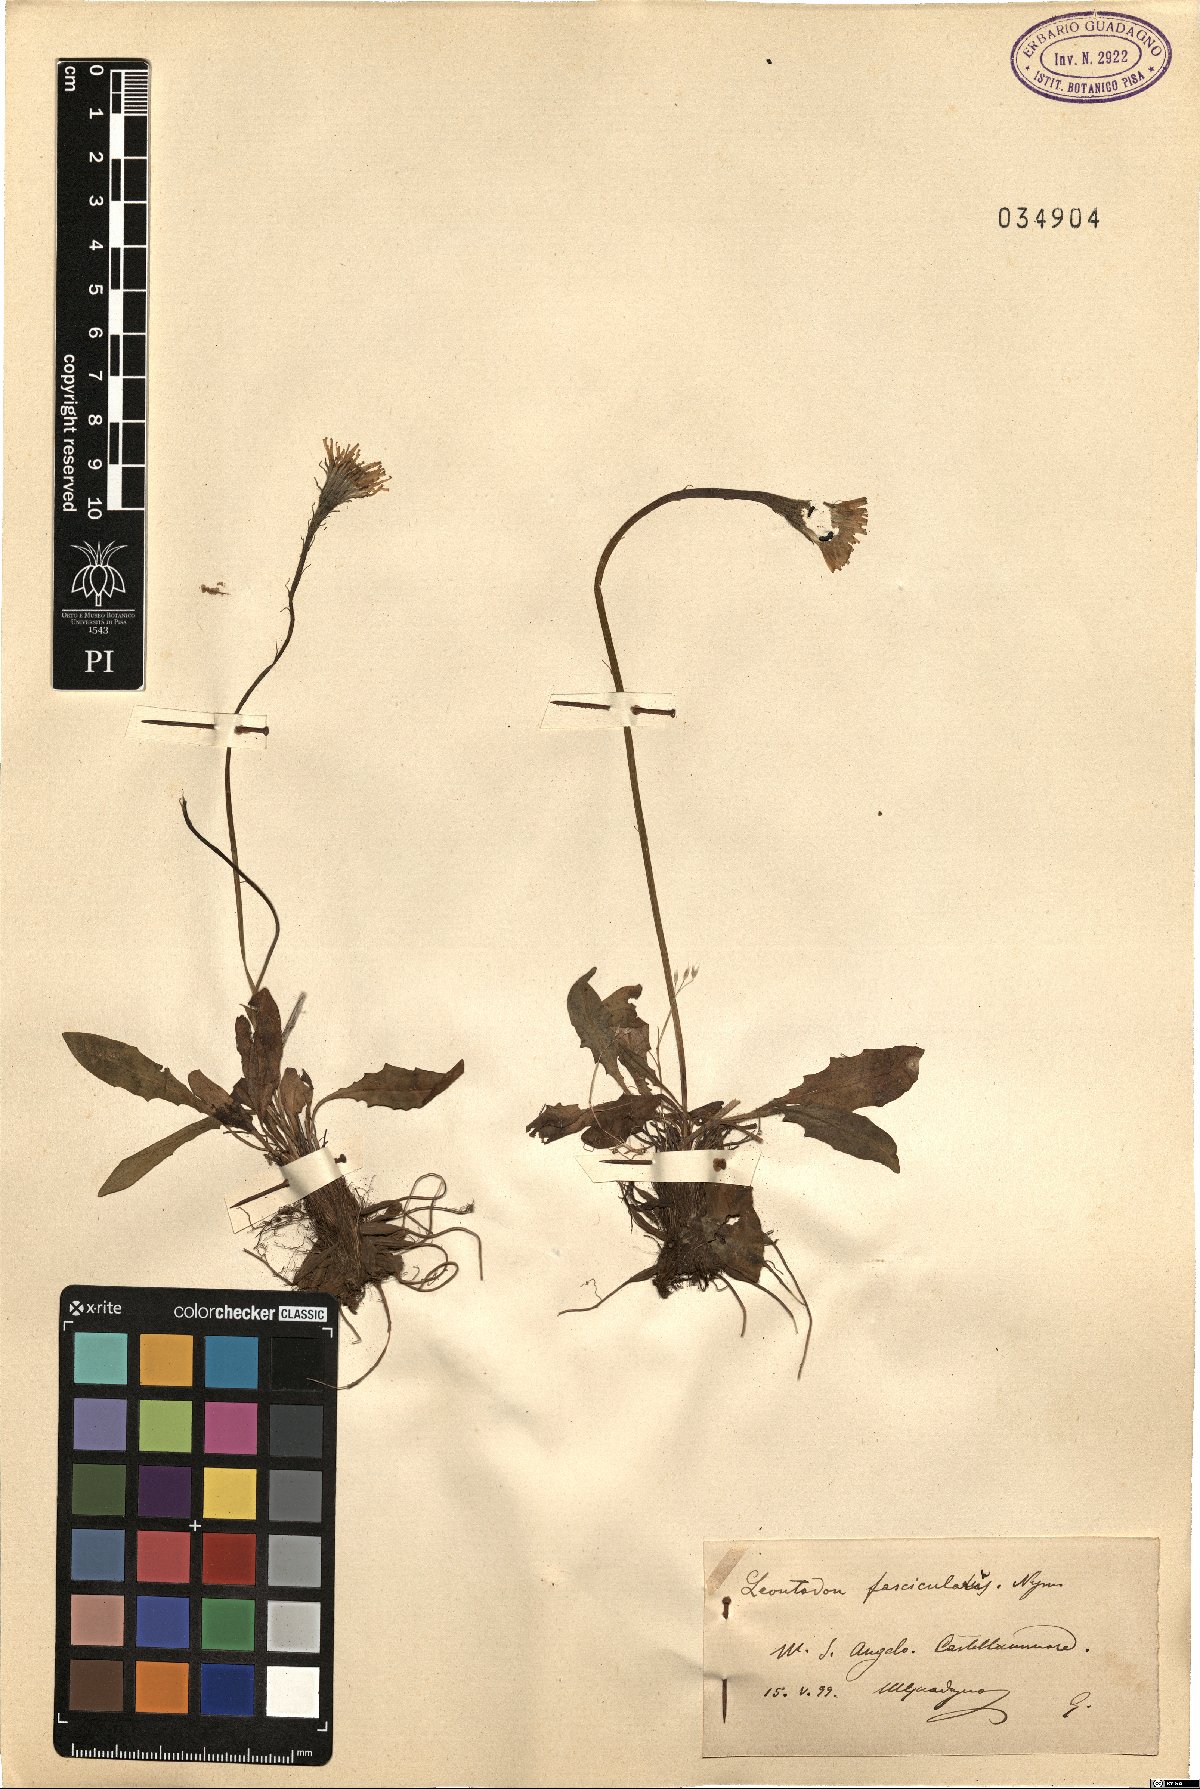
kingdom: Plantae
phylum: Tracheophyta
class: Magnoliopsida
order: Asterales
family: Asteraceae
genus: Scorzoneroides
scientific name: Scorzoneroides cichoriacea
